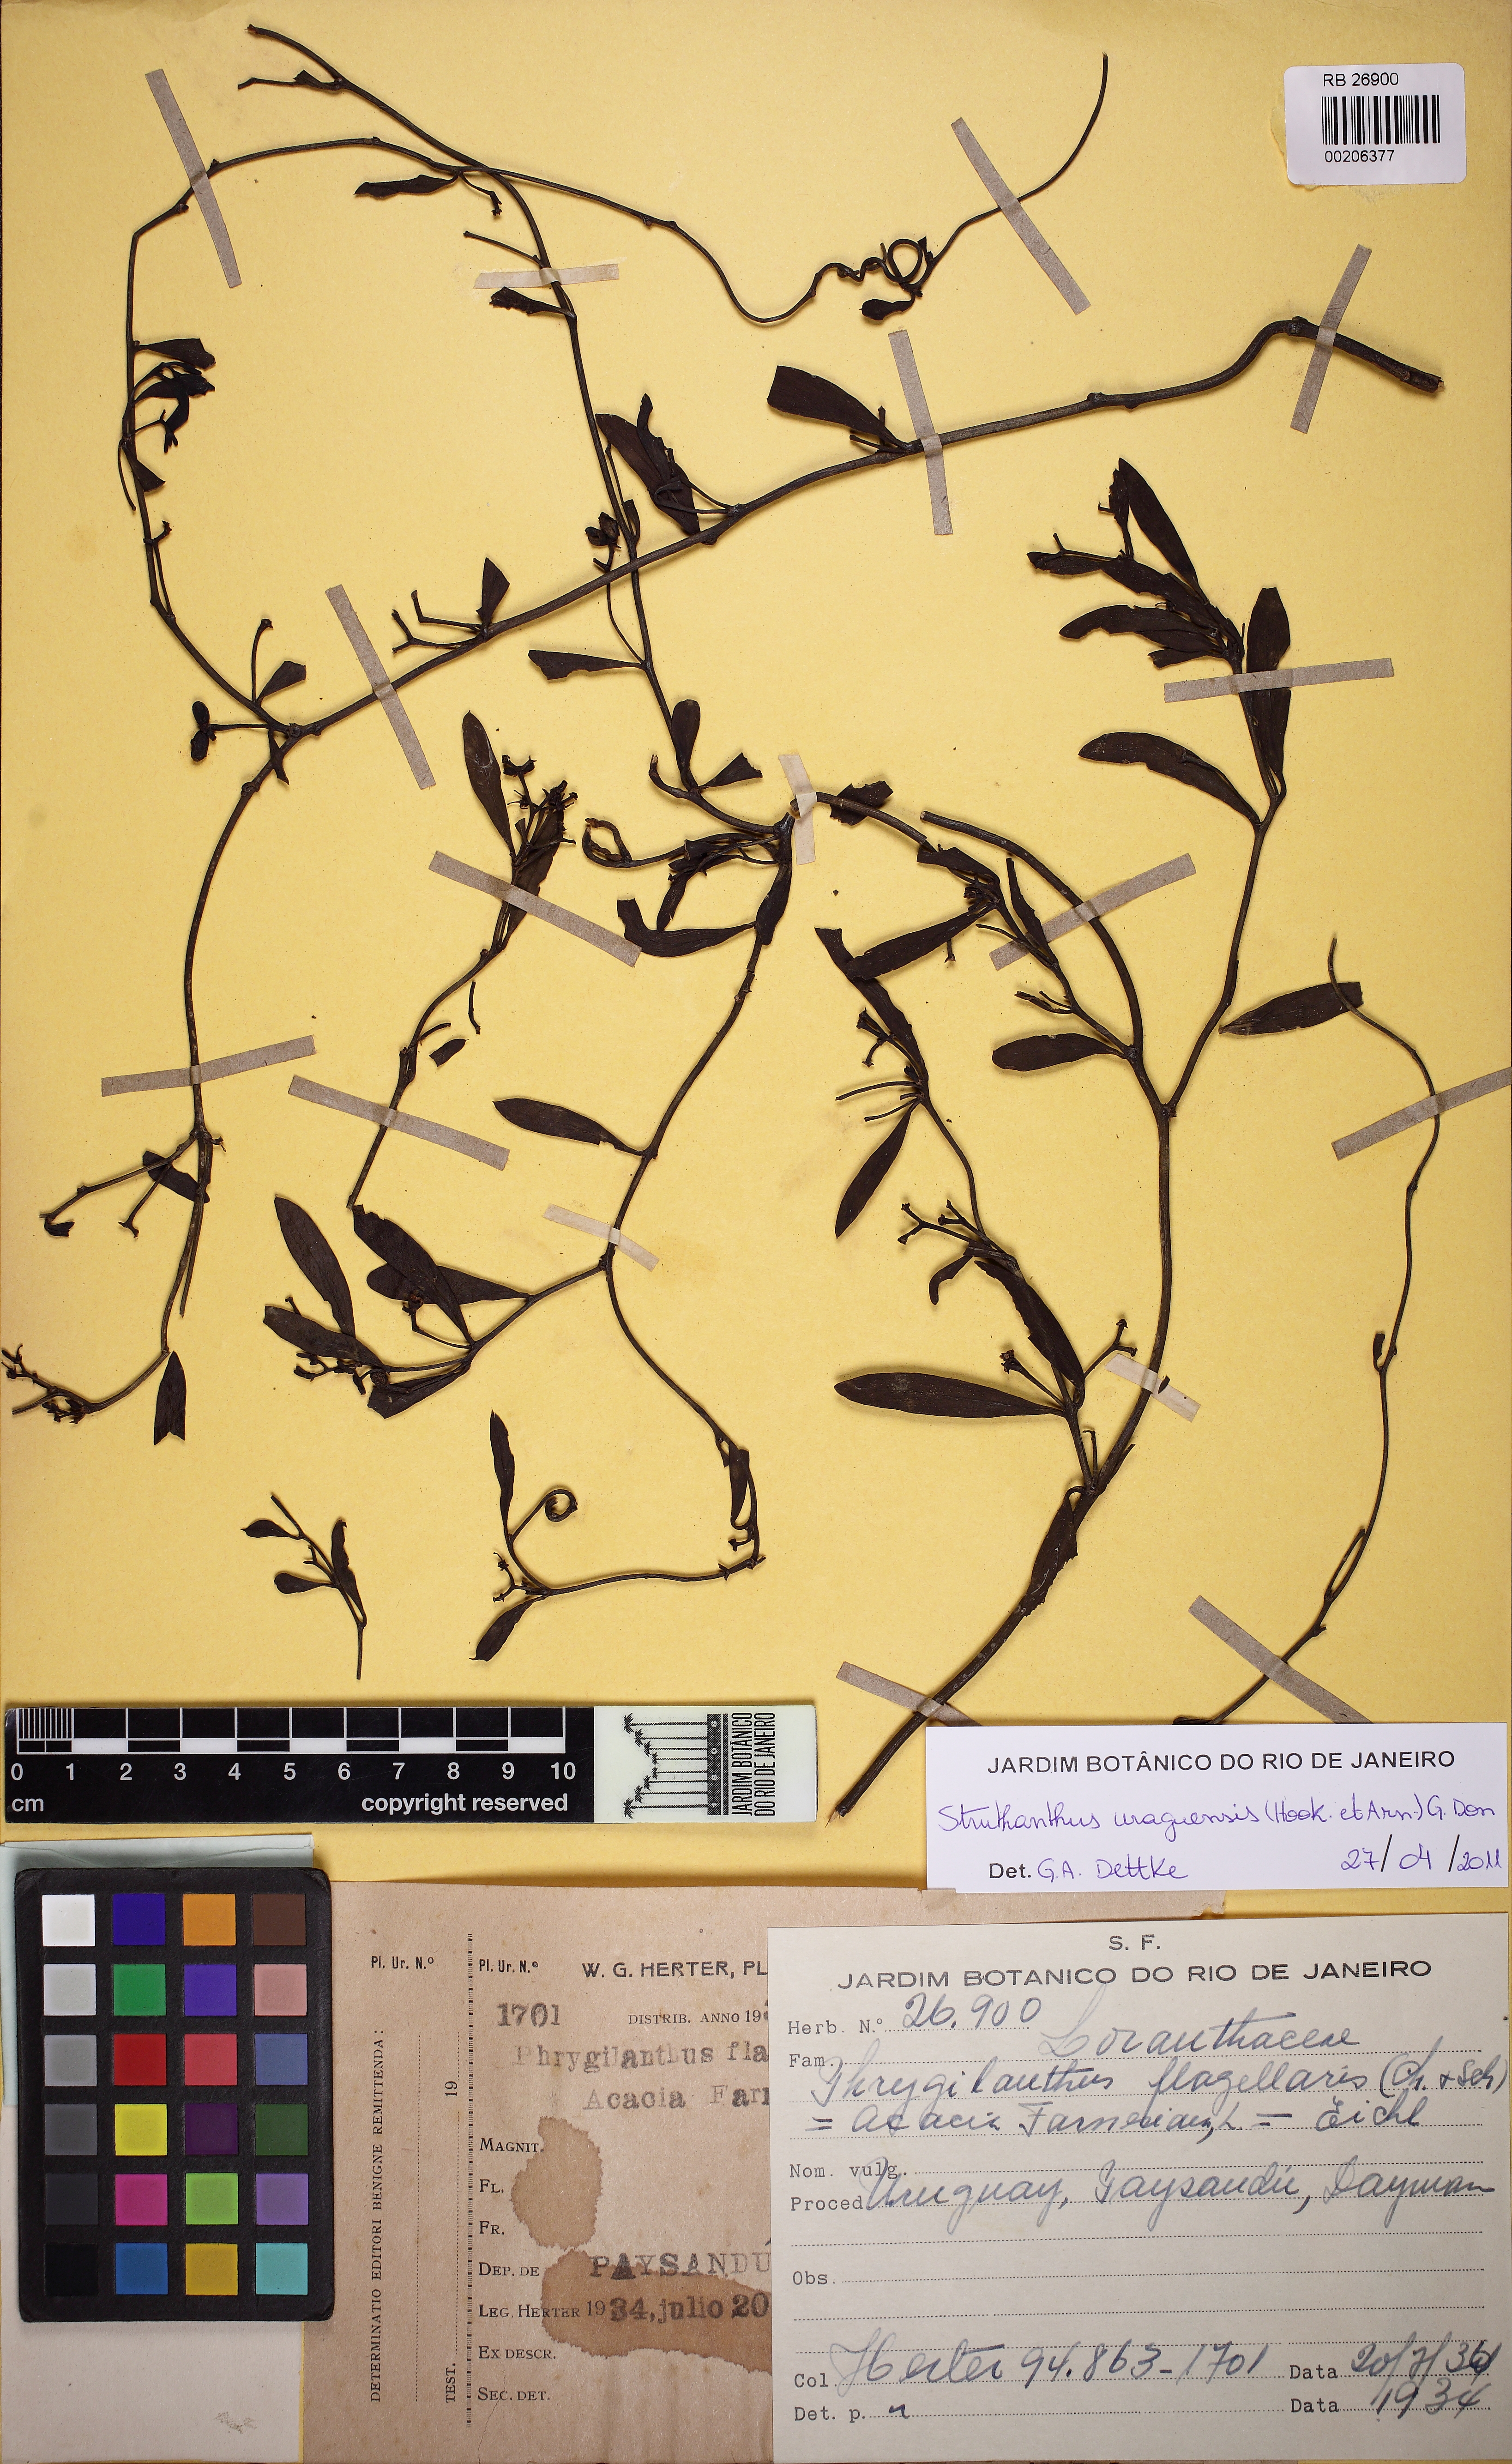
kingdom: Plantae
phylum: Tracheophyta
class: Magnoliopsida
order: Santalales
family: Loranthaceae
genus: Struthanthus
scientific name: Struthanthus uraguensis
